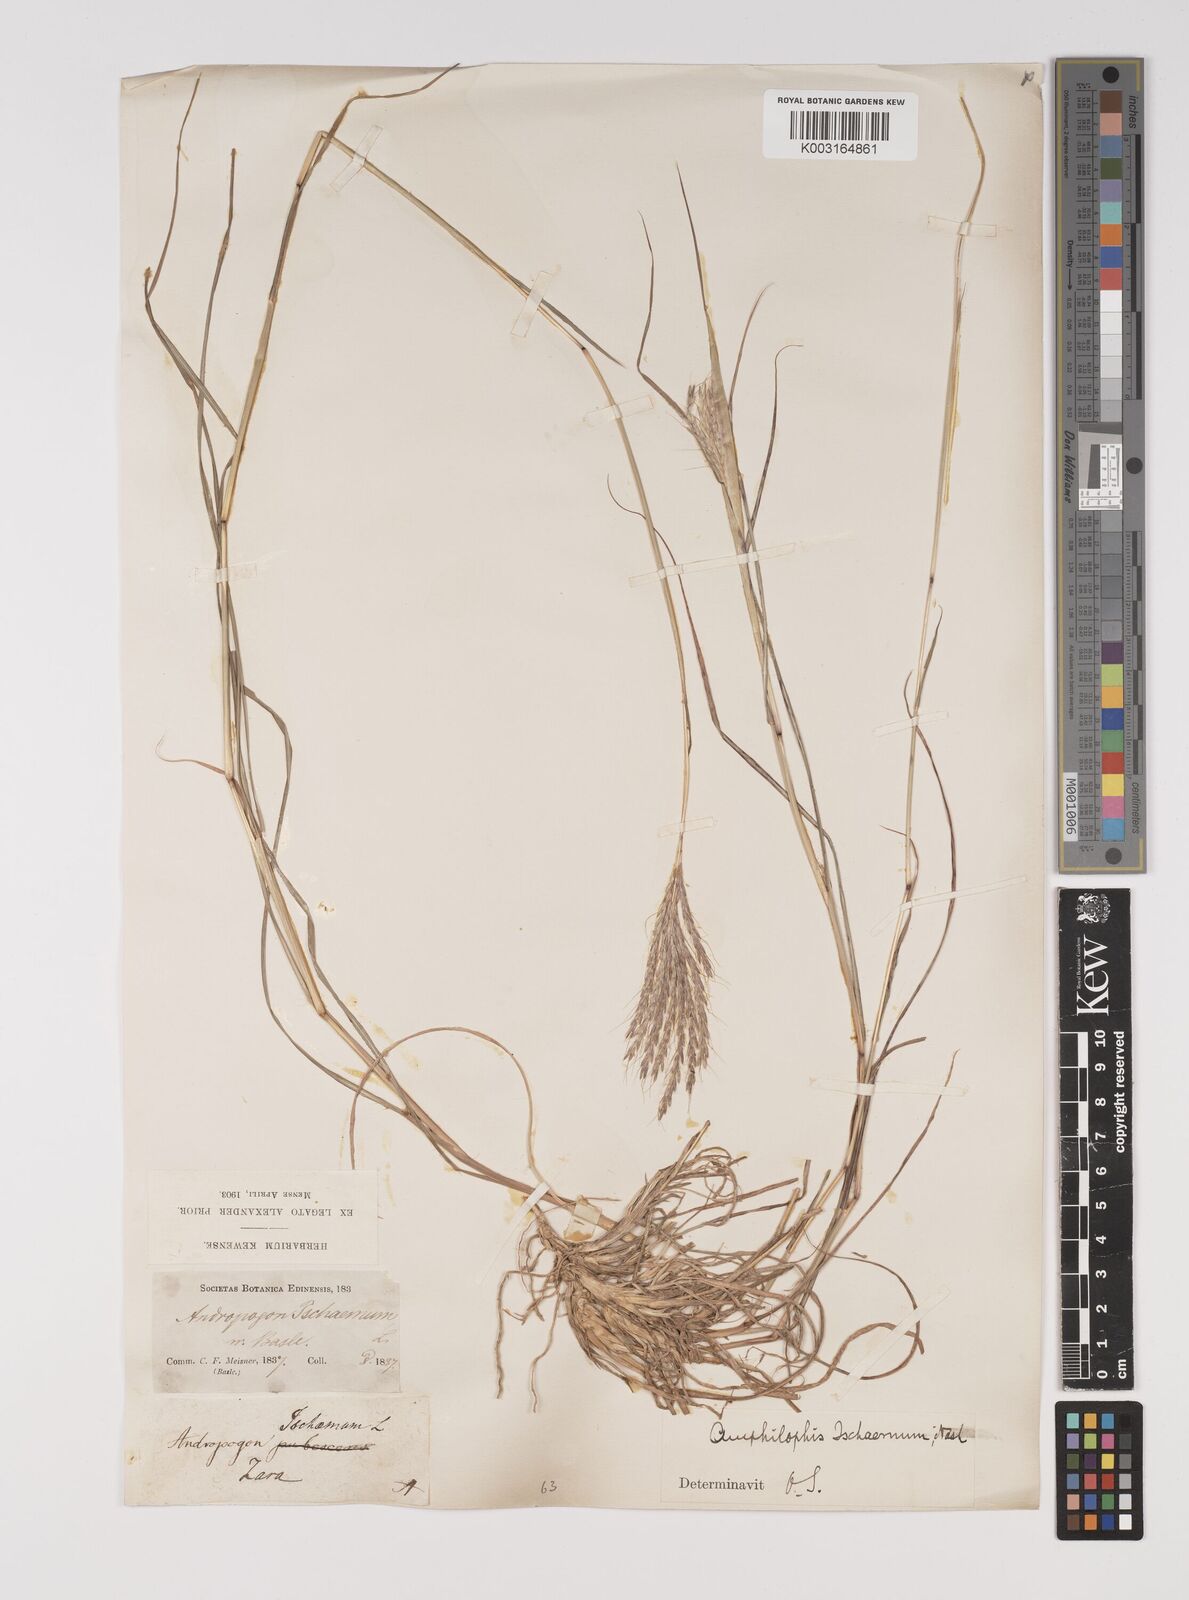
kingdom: Plantae
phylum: Tracheophyta
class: Liliopsida
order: Poales
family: Poaceae
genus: Bothriochloa
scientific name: Bothriochloa ischaemum
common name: Yellow bluestem
